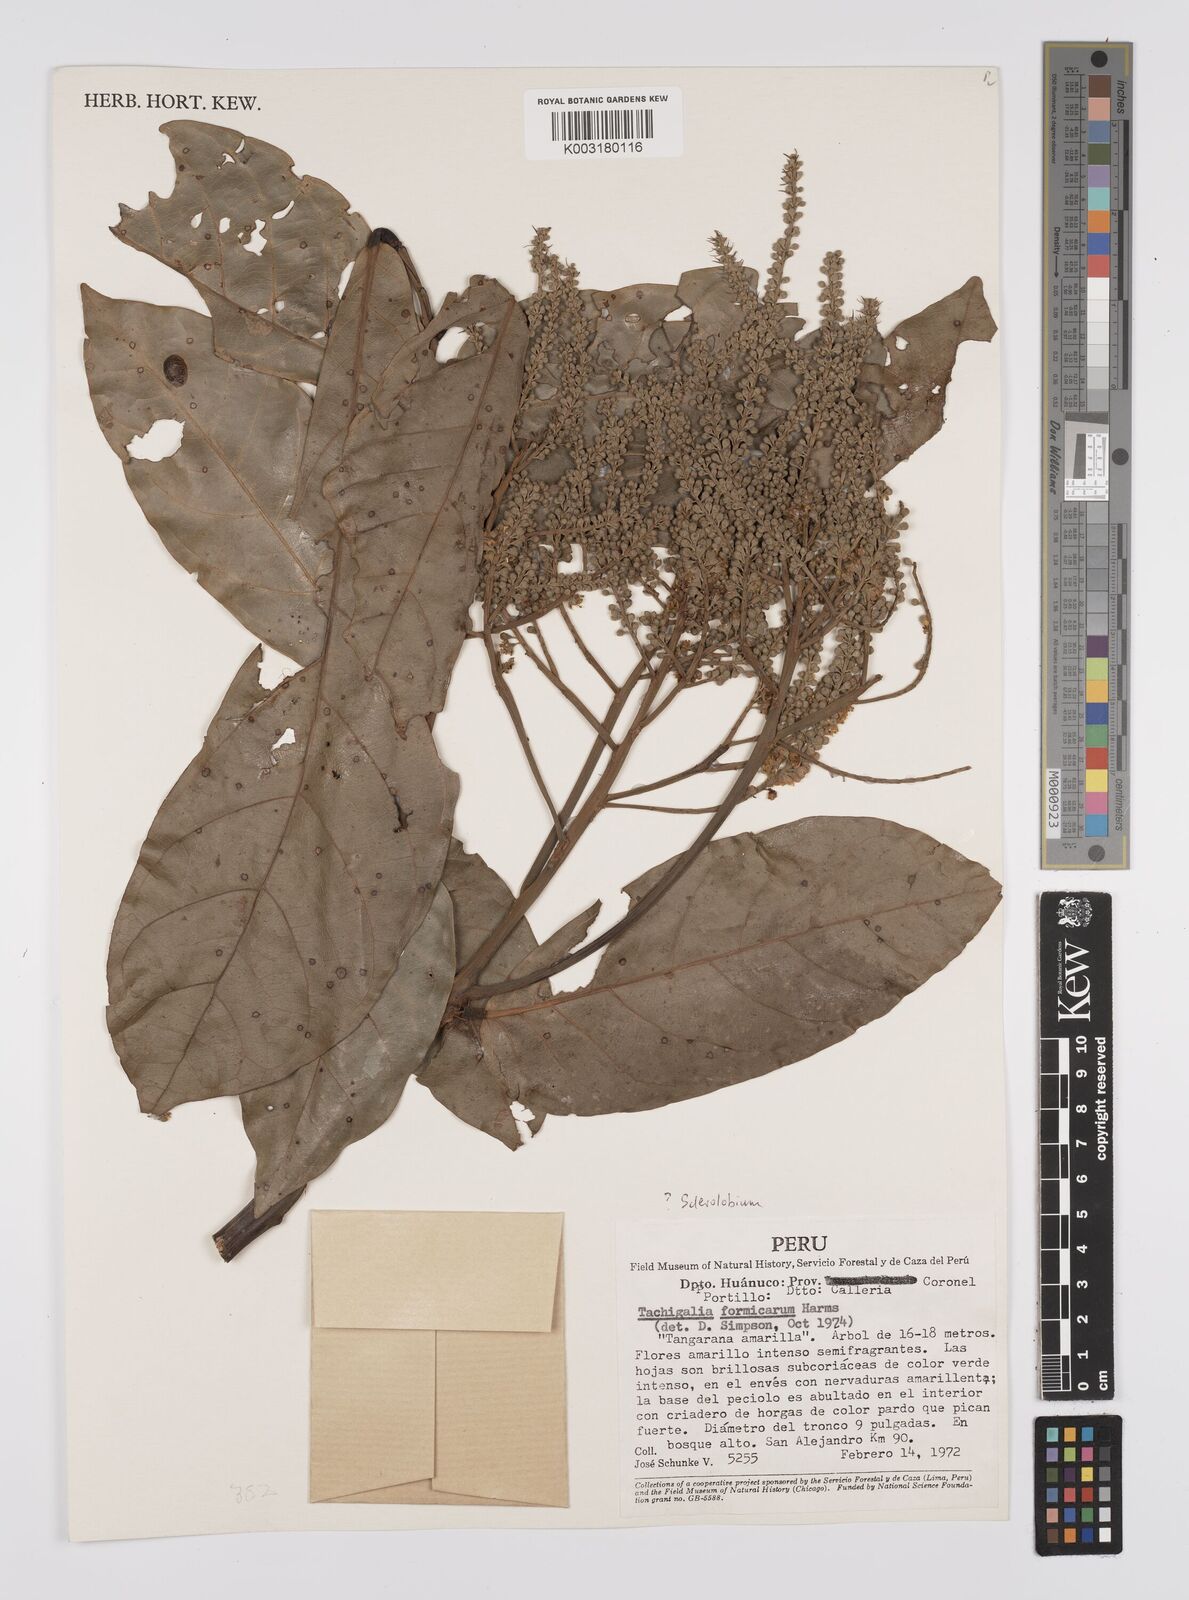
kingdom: Plantae
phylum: Tracheophyta
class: Magnoliopsida
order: Fabales
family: Fabaceae
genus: Tachigali
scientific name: Tachigali formicarum
